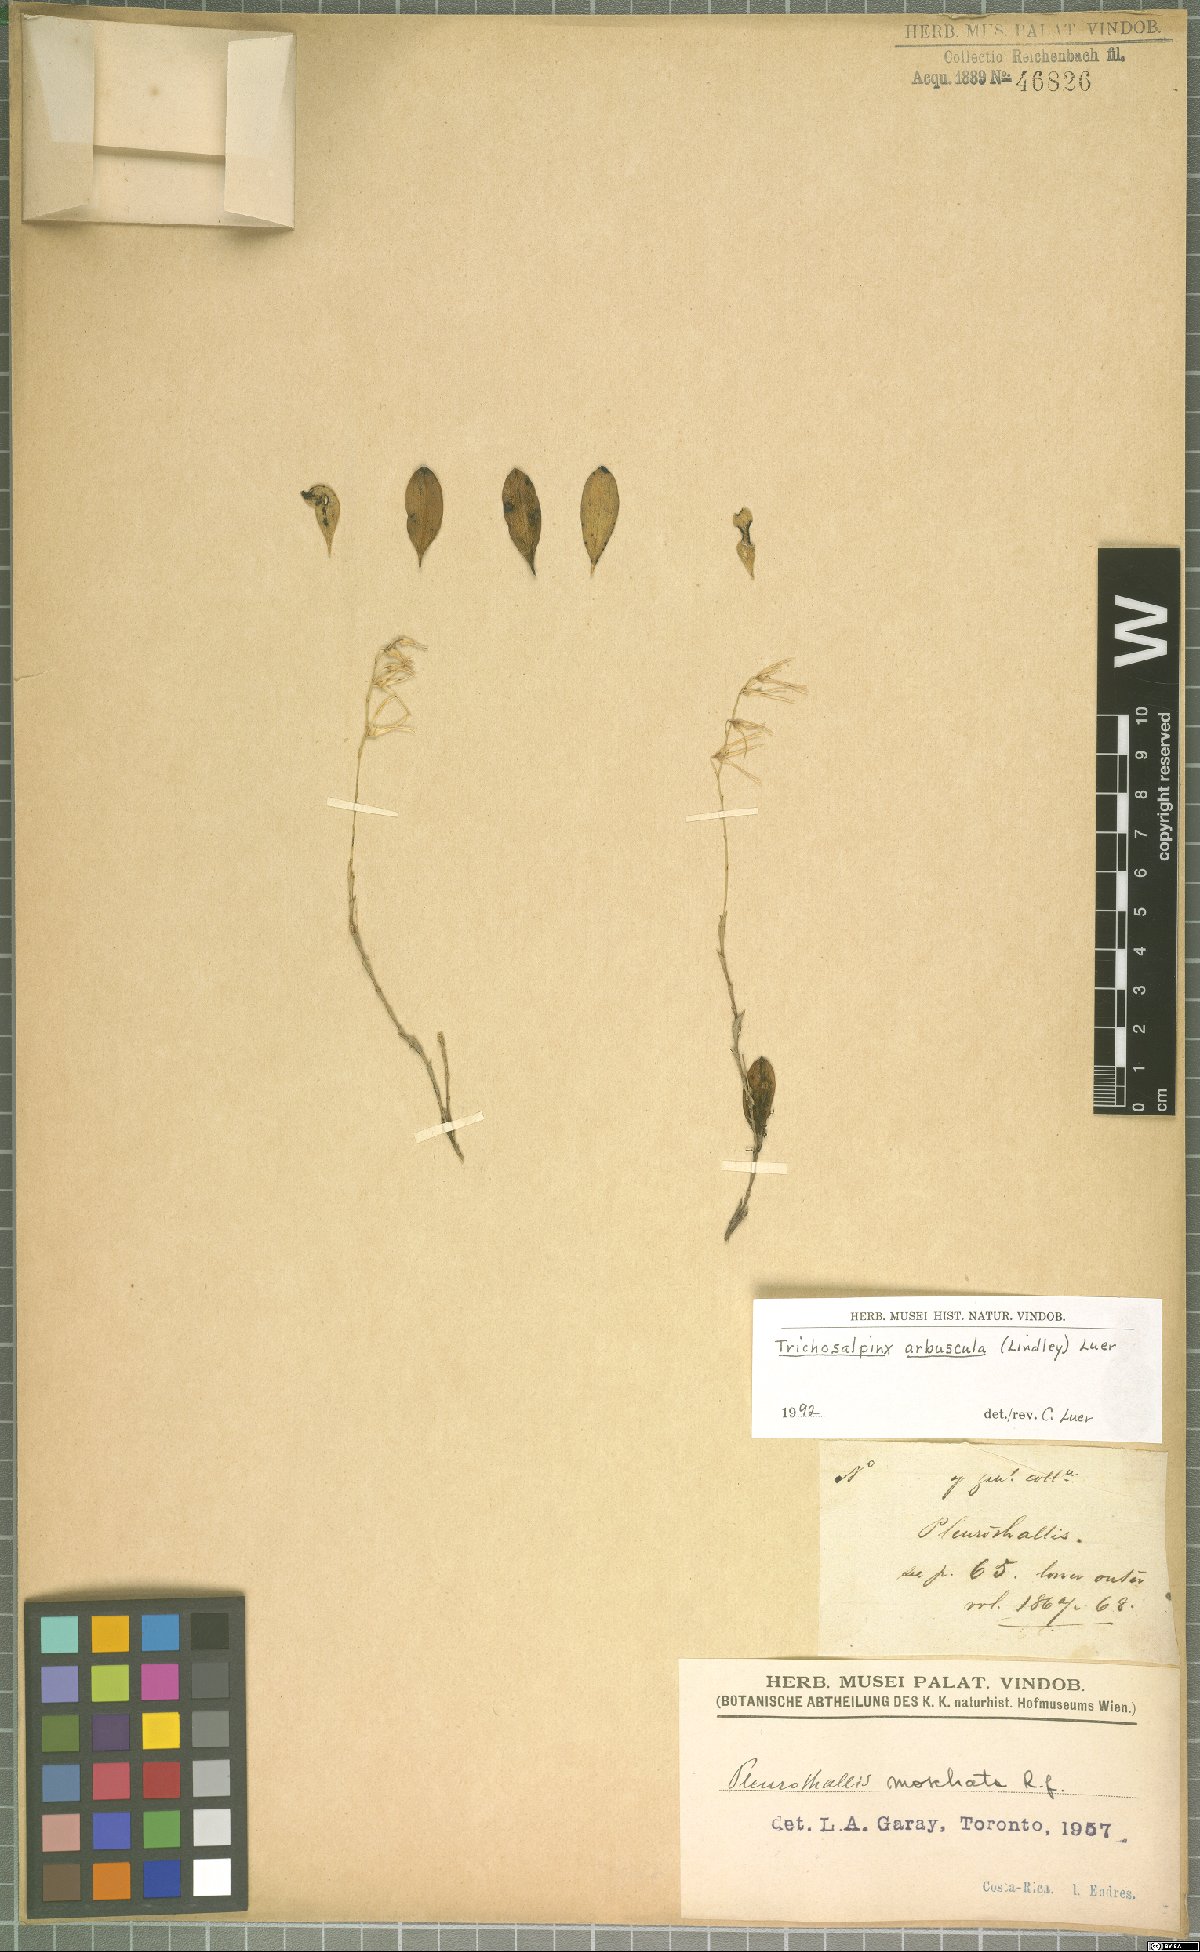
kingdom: Plantae
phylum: Tracheophyta
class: Liliopsida
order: Asparagales
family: Orchidaceae
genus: Trichosalpinx
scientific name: Trichosalpinx arbuscula
